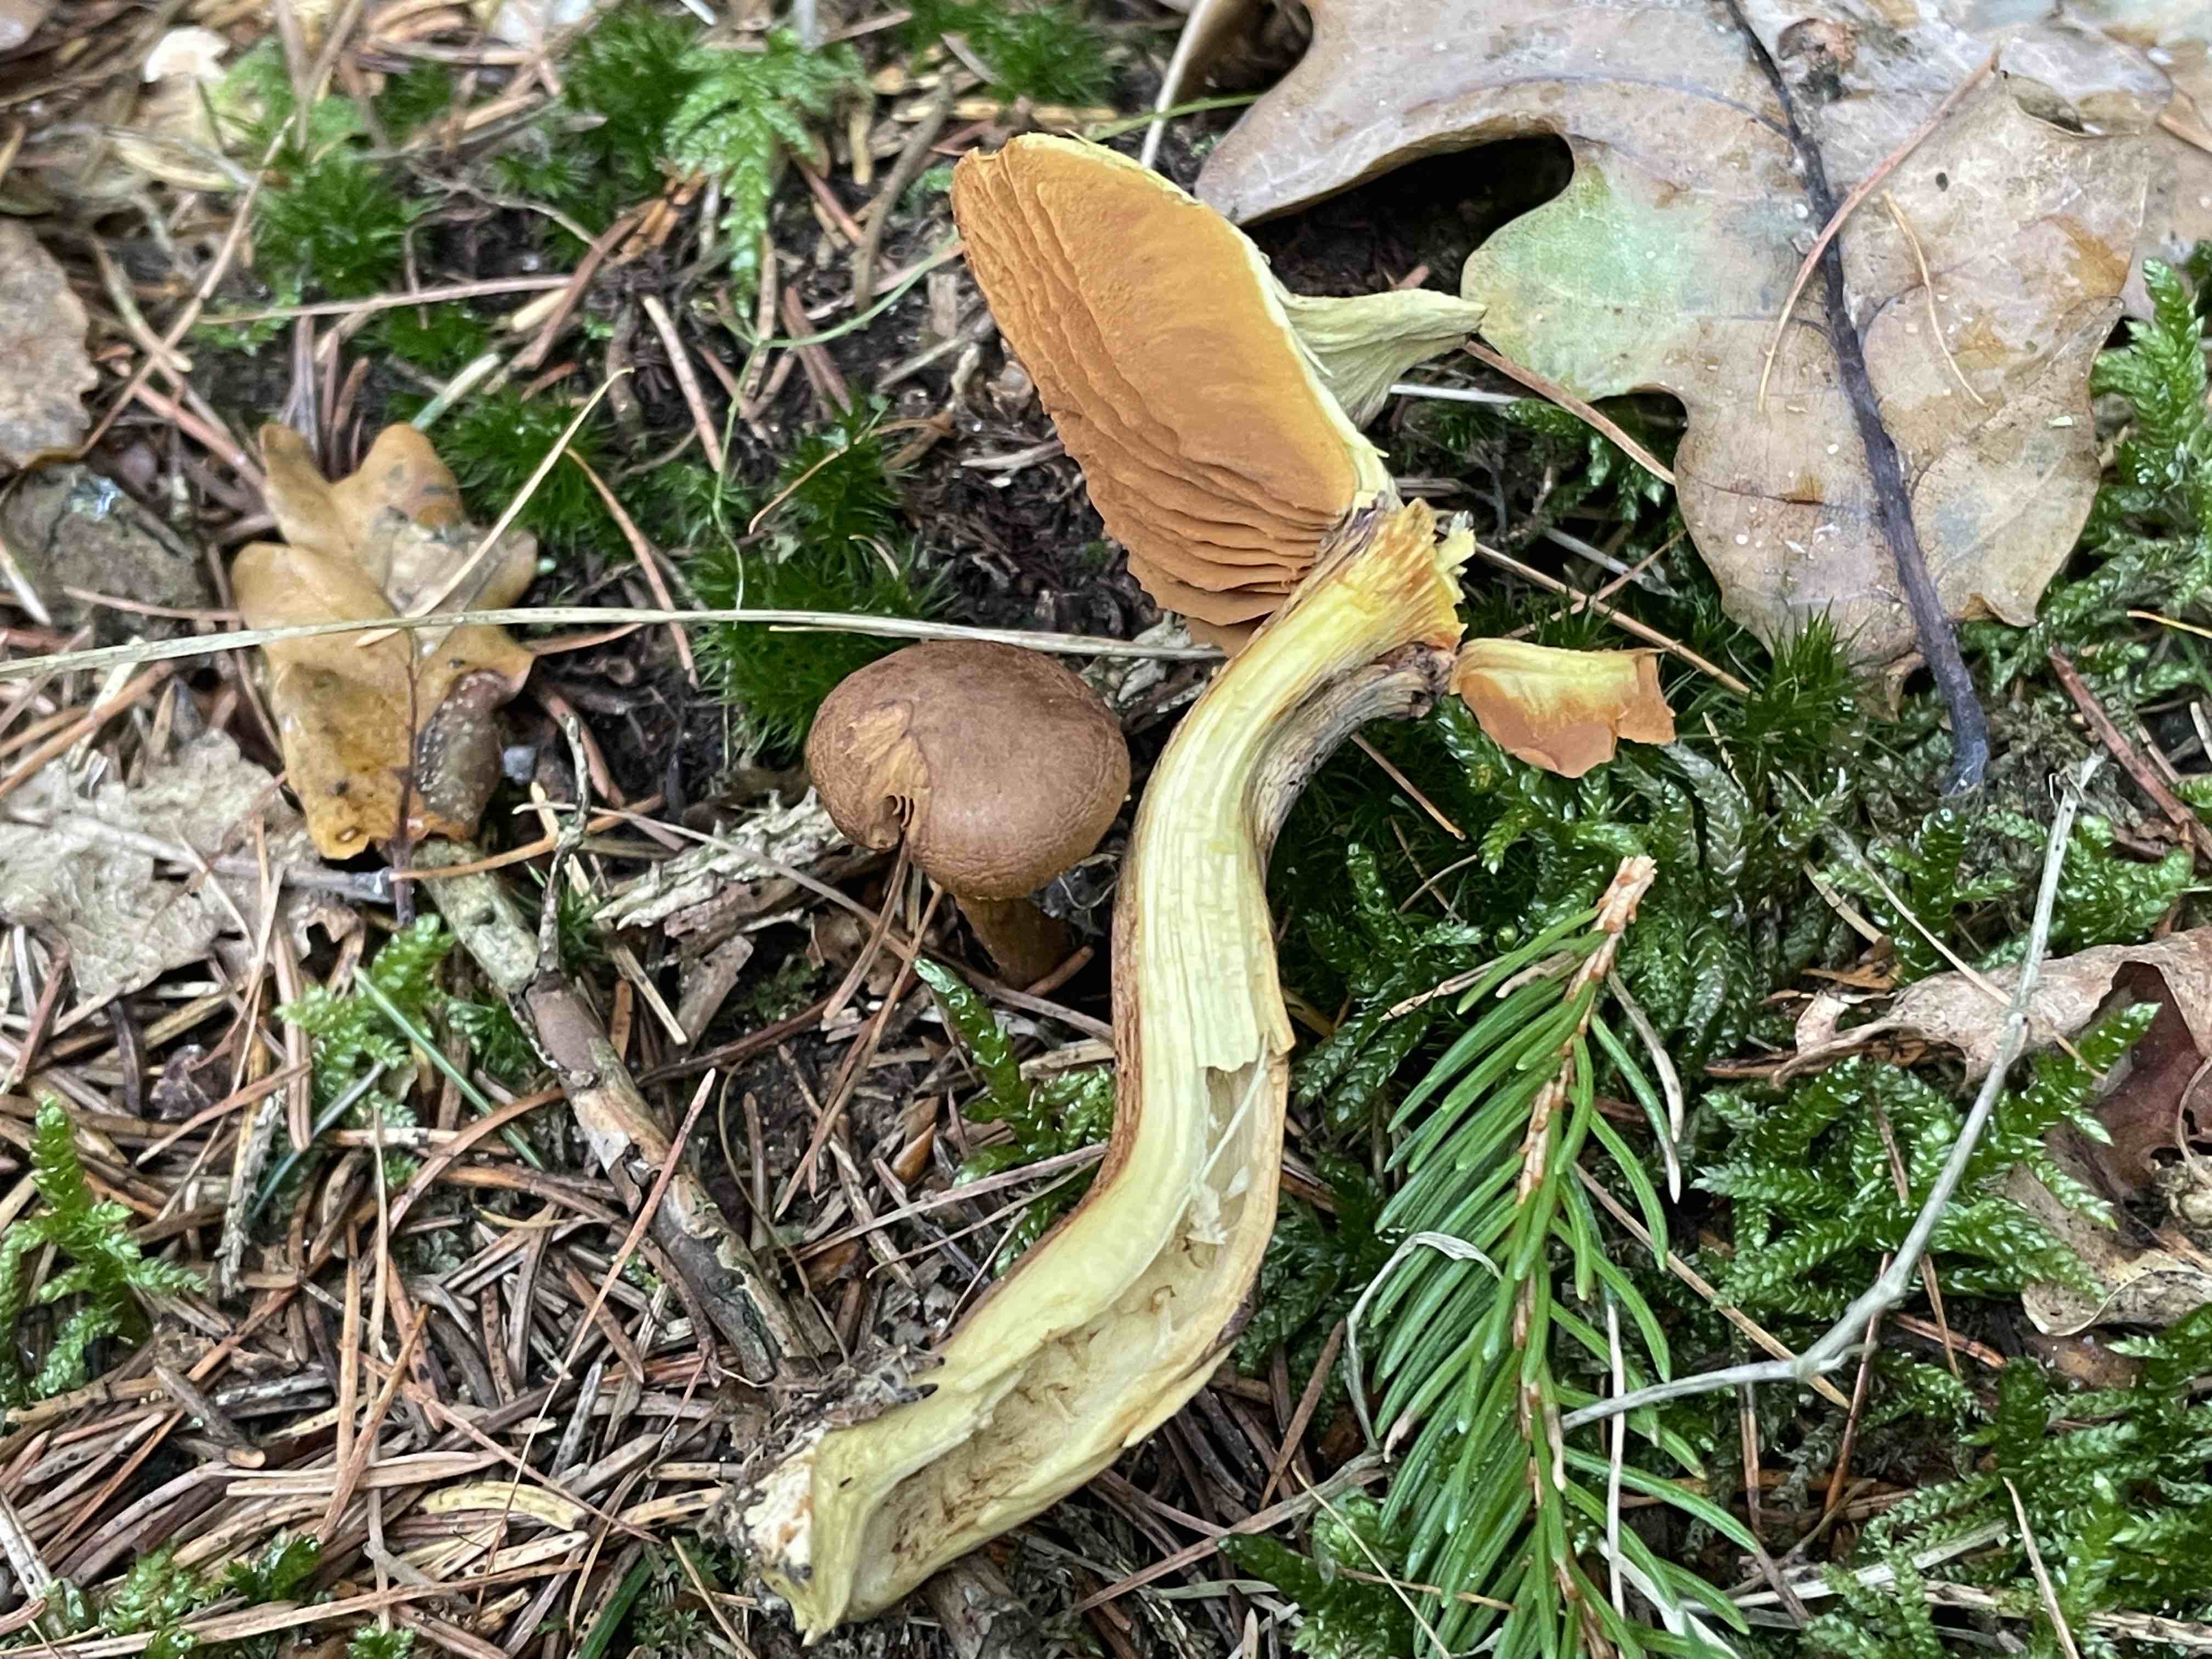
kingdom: Fungi
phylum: Basidiomycota
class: Agaricomycetes
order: Agaricales
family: Cortinariaceae
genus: Cortinarius
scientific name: Cortinarius
